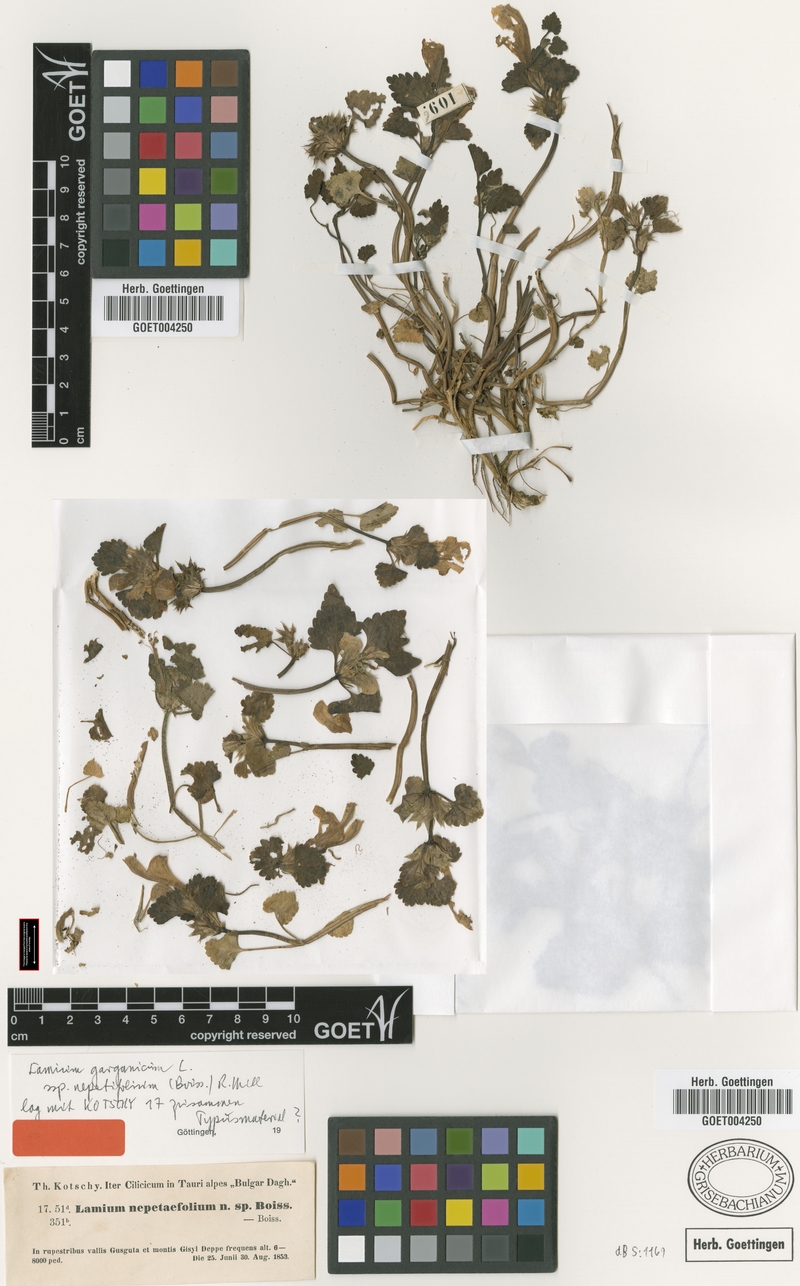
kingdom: Plantae
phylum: Tracheophyta
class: Magnoliopsida
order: Lamiales
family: Lamiaceae
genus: Lamium
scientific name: Lamium garganicum
